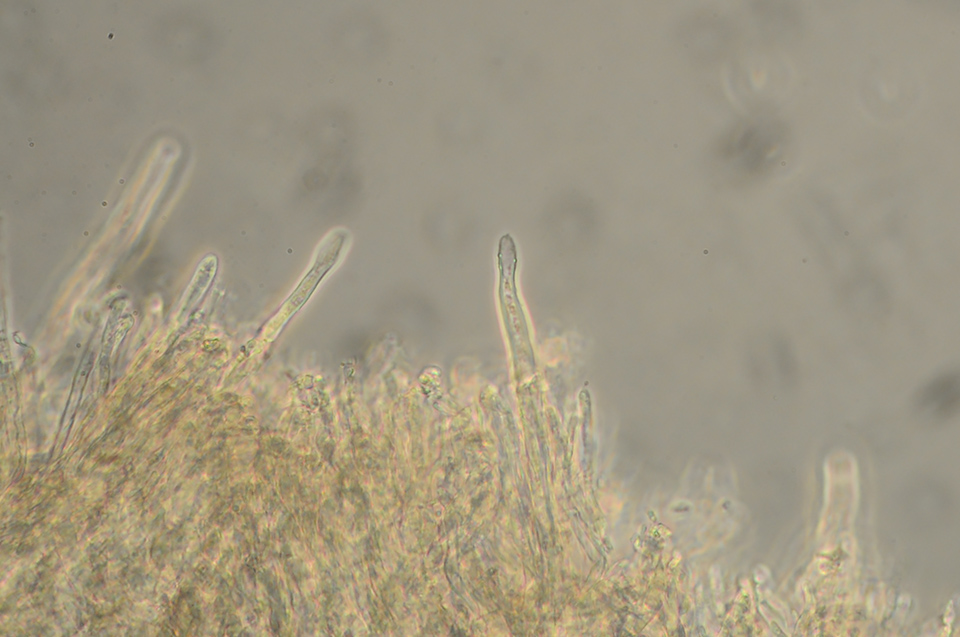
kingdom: Fungi
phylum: Basidiomycota
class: Agaricomycetes
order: Polyporales
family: Dacryobolaceae
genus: Dacryobolus
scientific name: Dacryobolus karstenii
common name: glat vulkanskorpe
